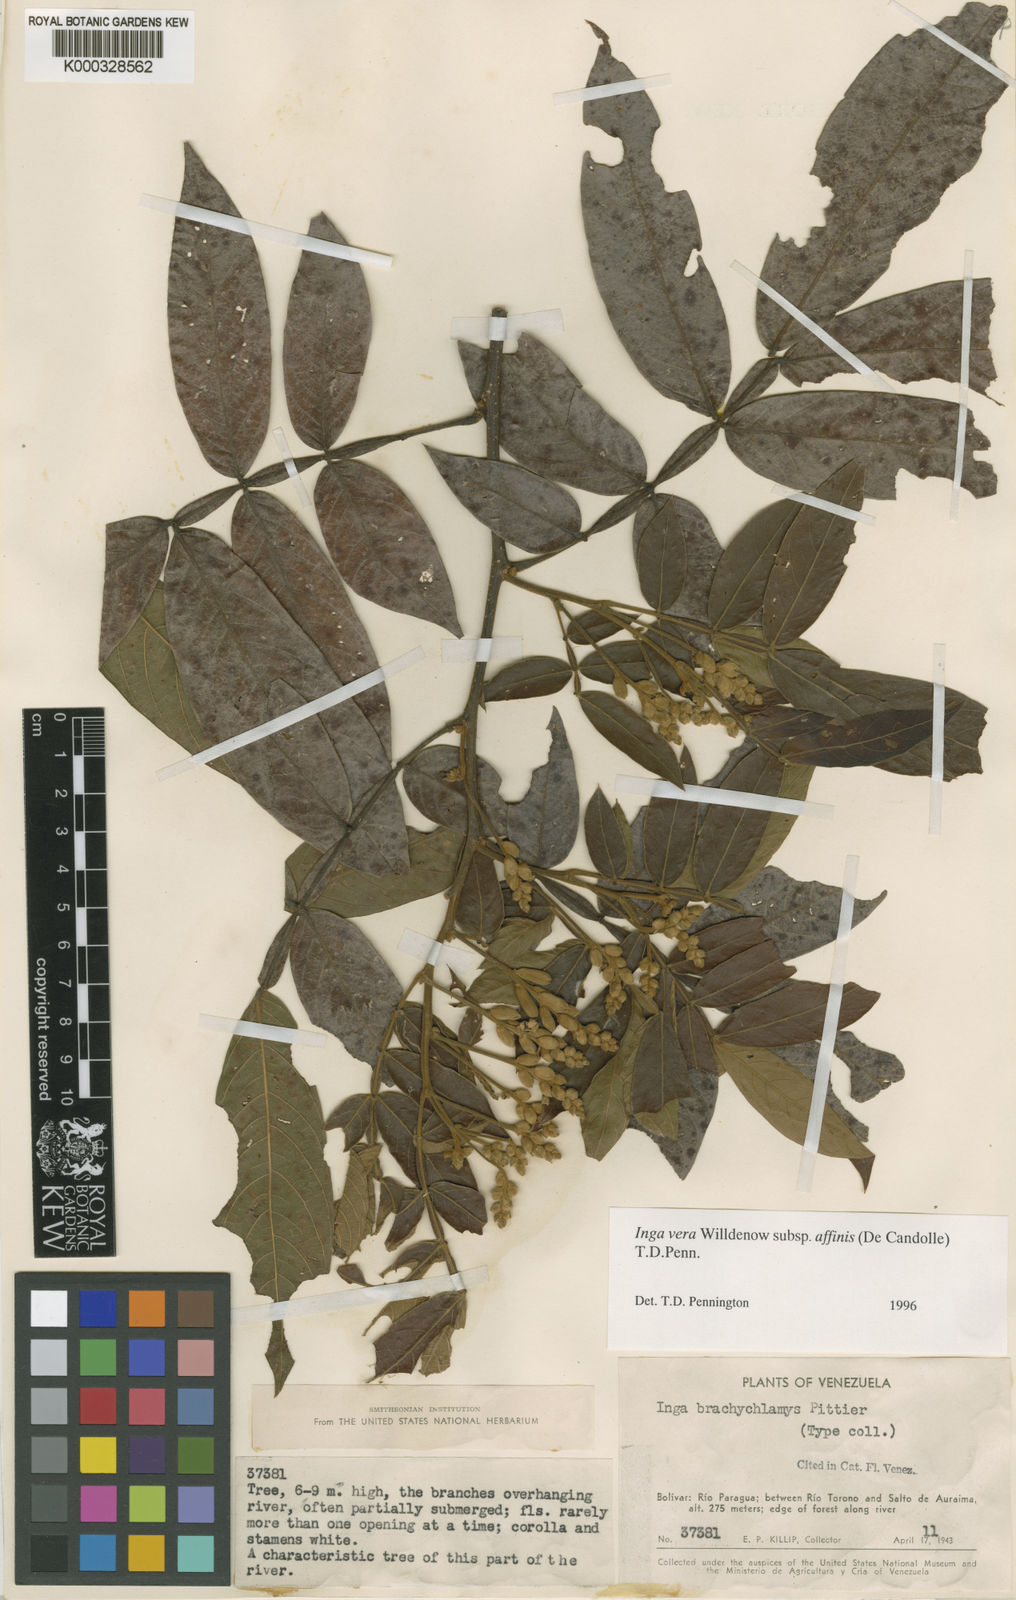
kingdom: Plantae
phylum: Tracheophyta
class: Magnoliopsida
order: Fabales
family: Fabaceae
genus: Inga
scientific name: Inga affinis
